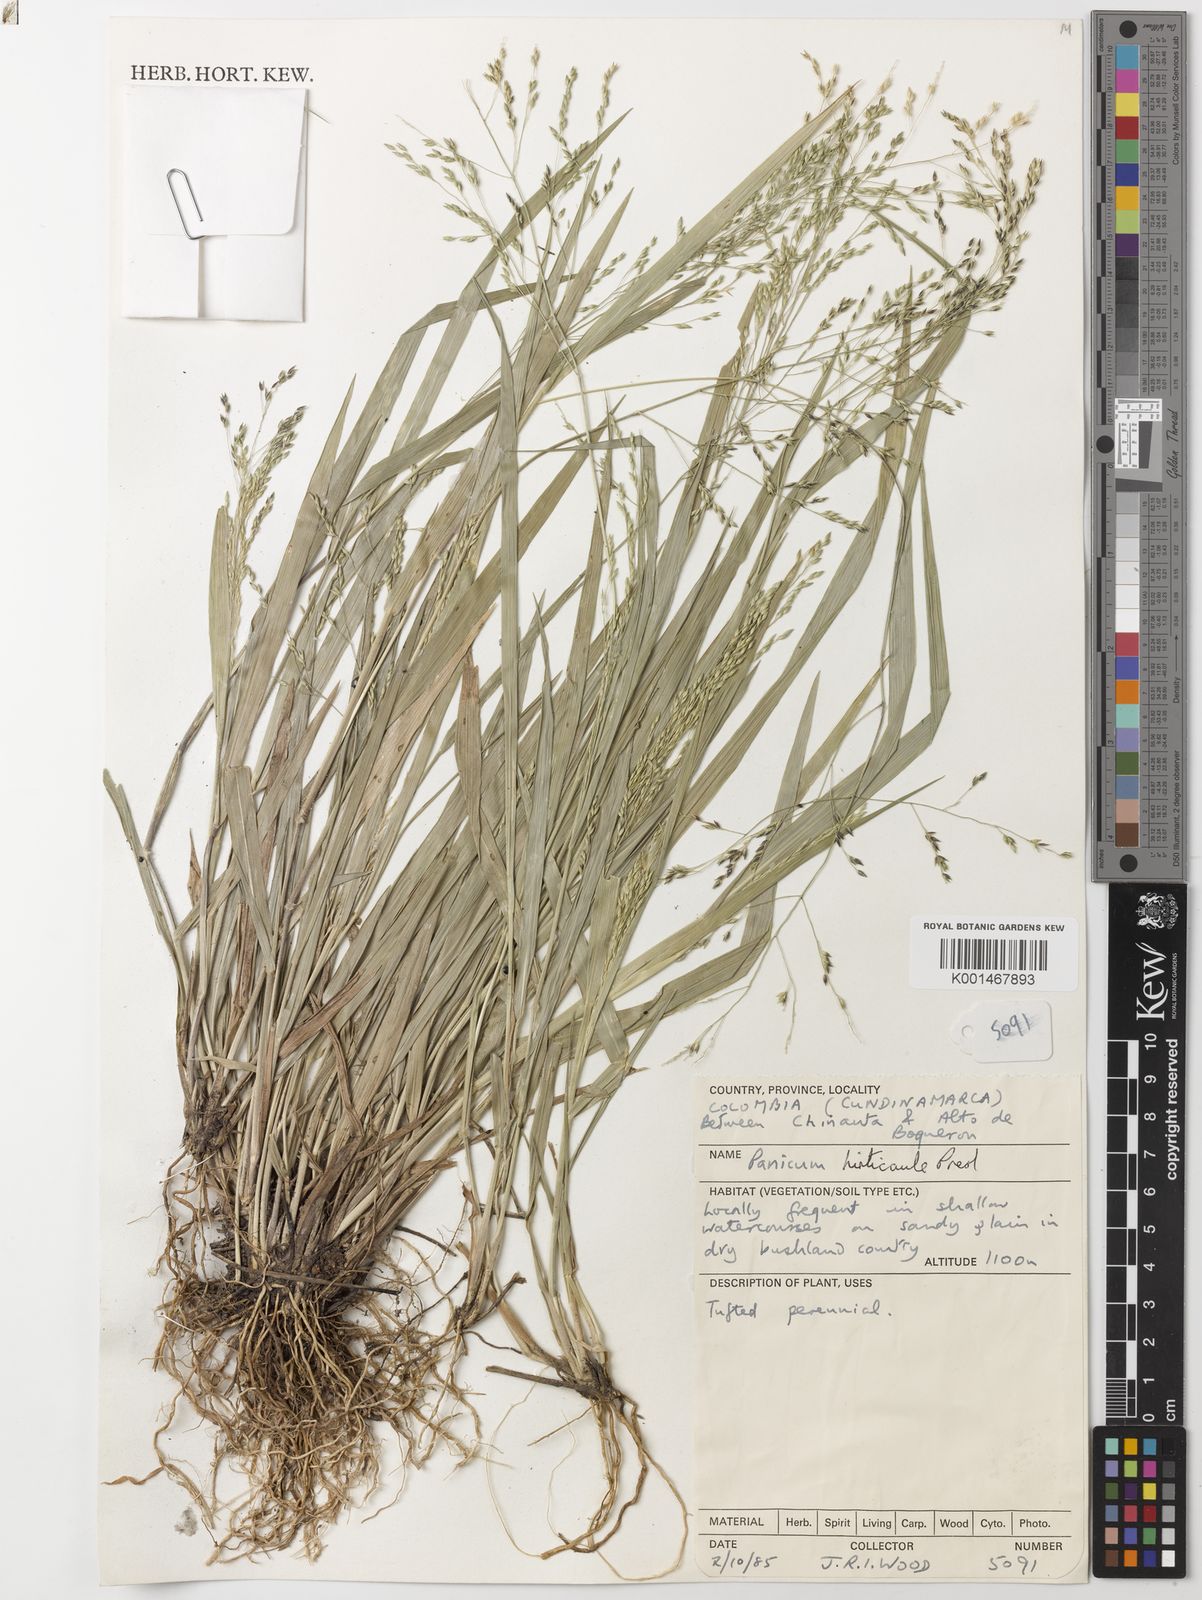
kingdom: Plantae
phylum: Tracheophyta
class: Liliopsida
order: Poales
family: Poaceae
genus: Panicum
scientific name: Panicum ghiesbreghtii
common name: Ghiesbreght's witchgrass
